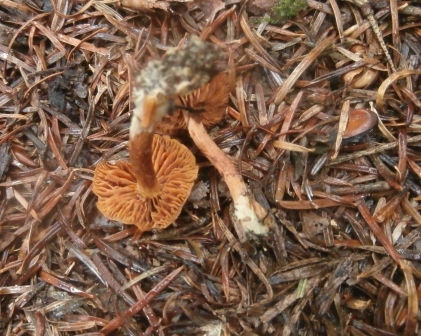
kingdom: Fungi
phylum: Basidiomycota
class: Agaricomycetes
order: Agaricales
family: Cortinariaceae
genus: Cortinarius
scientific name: Cortinarius
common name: gulbladet slørhat
